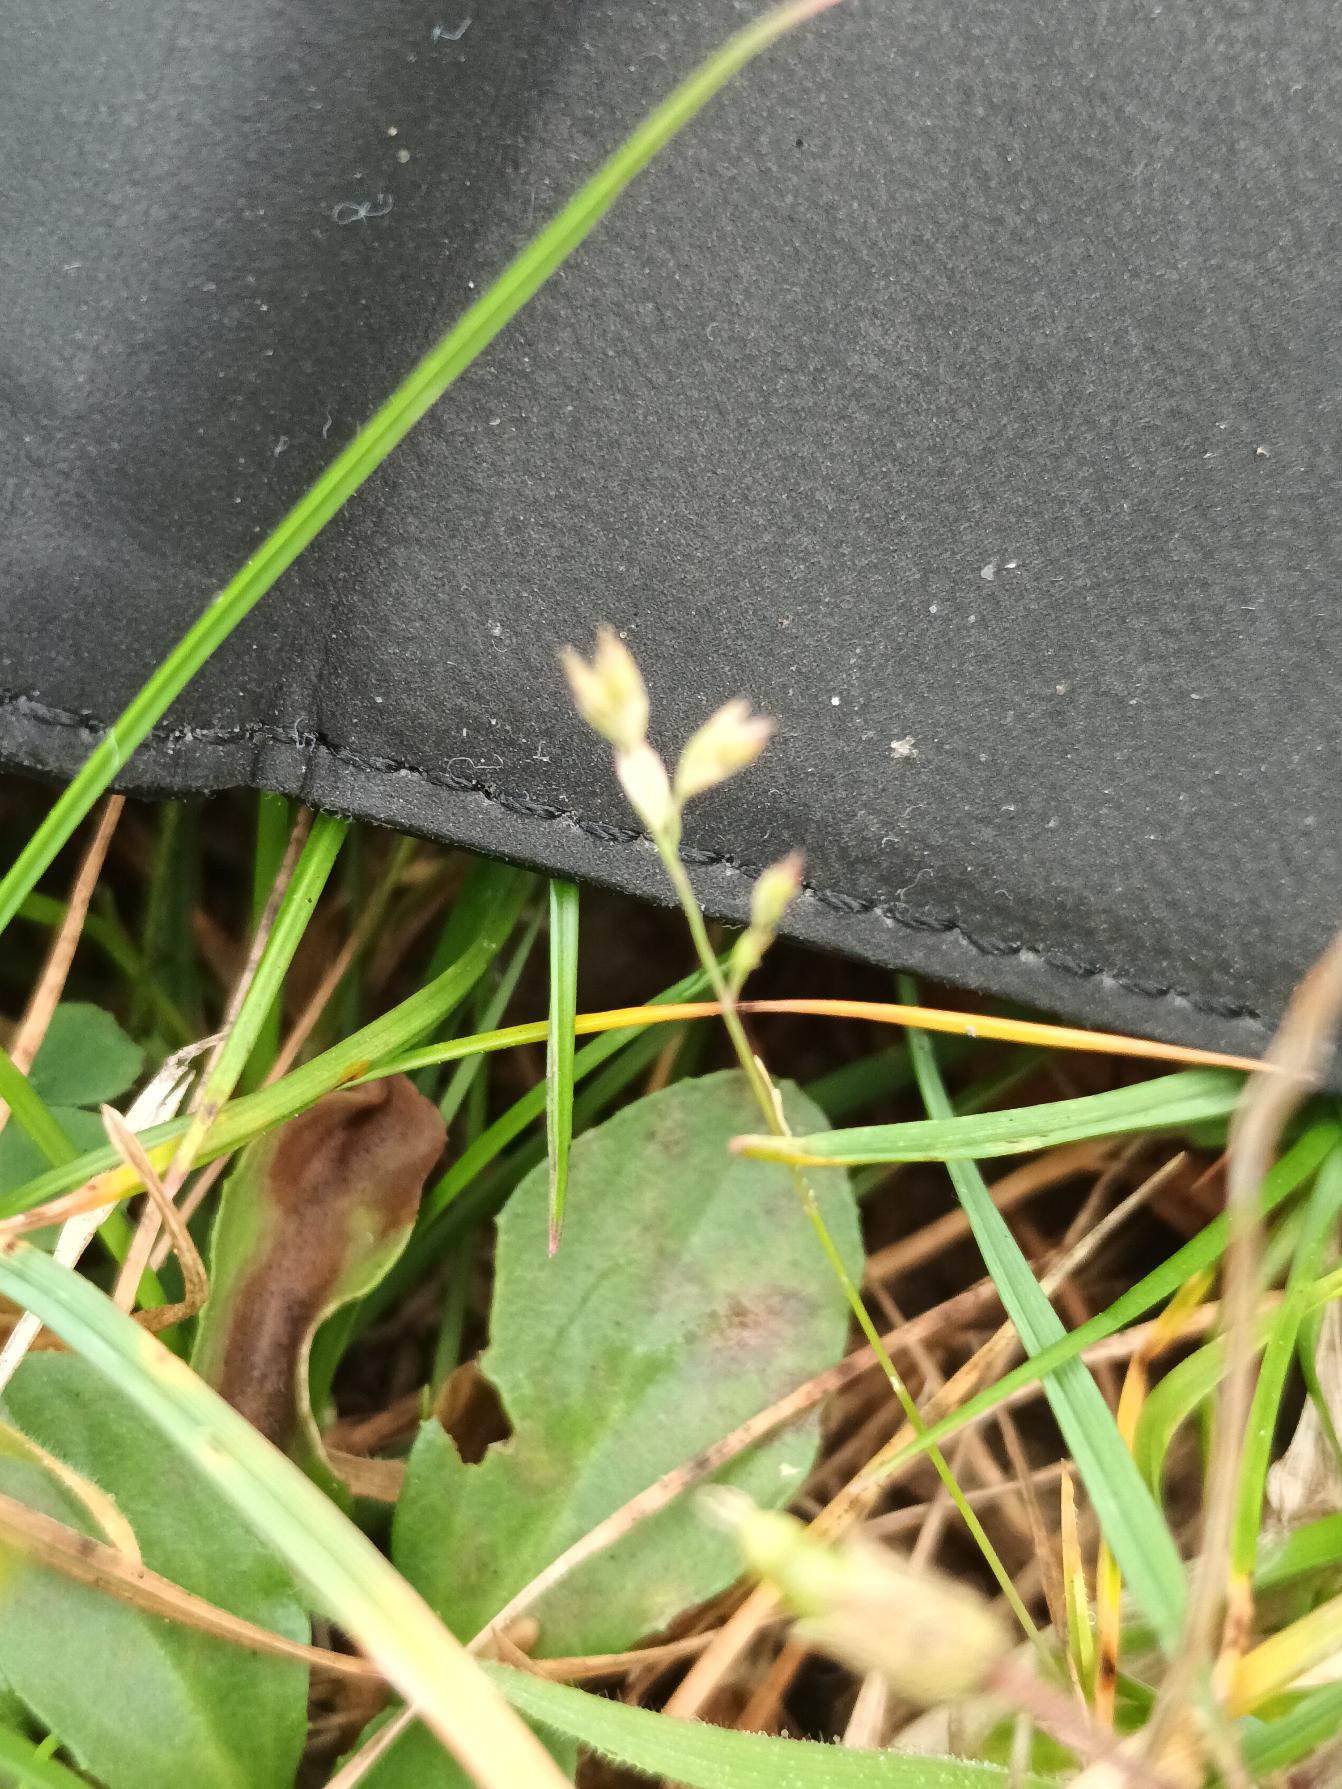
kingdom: Plantae
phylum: Tracheophyta
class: Liliopsida
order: Poales
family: Poaceae
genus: Poa
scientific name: Poa annua
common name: Enårig rapgræs
